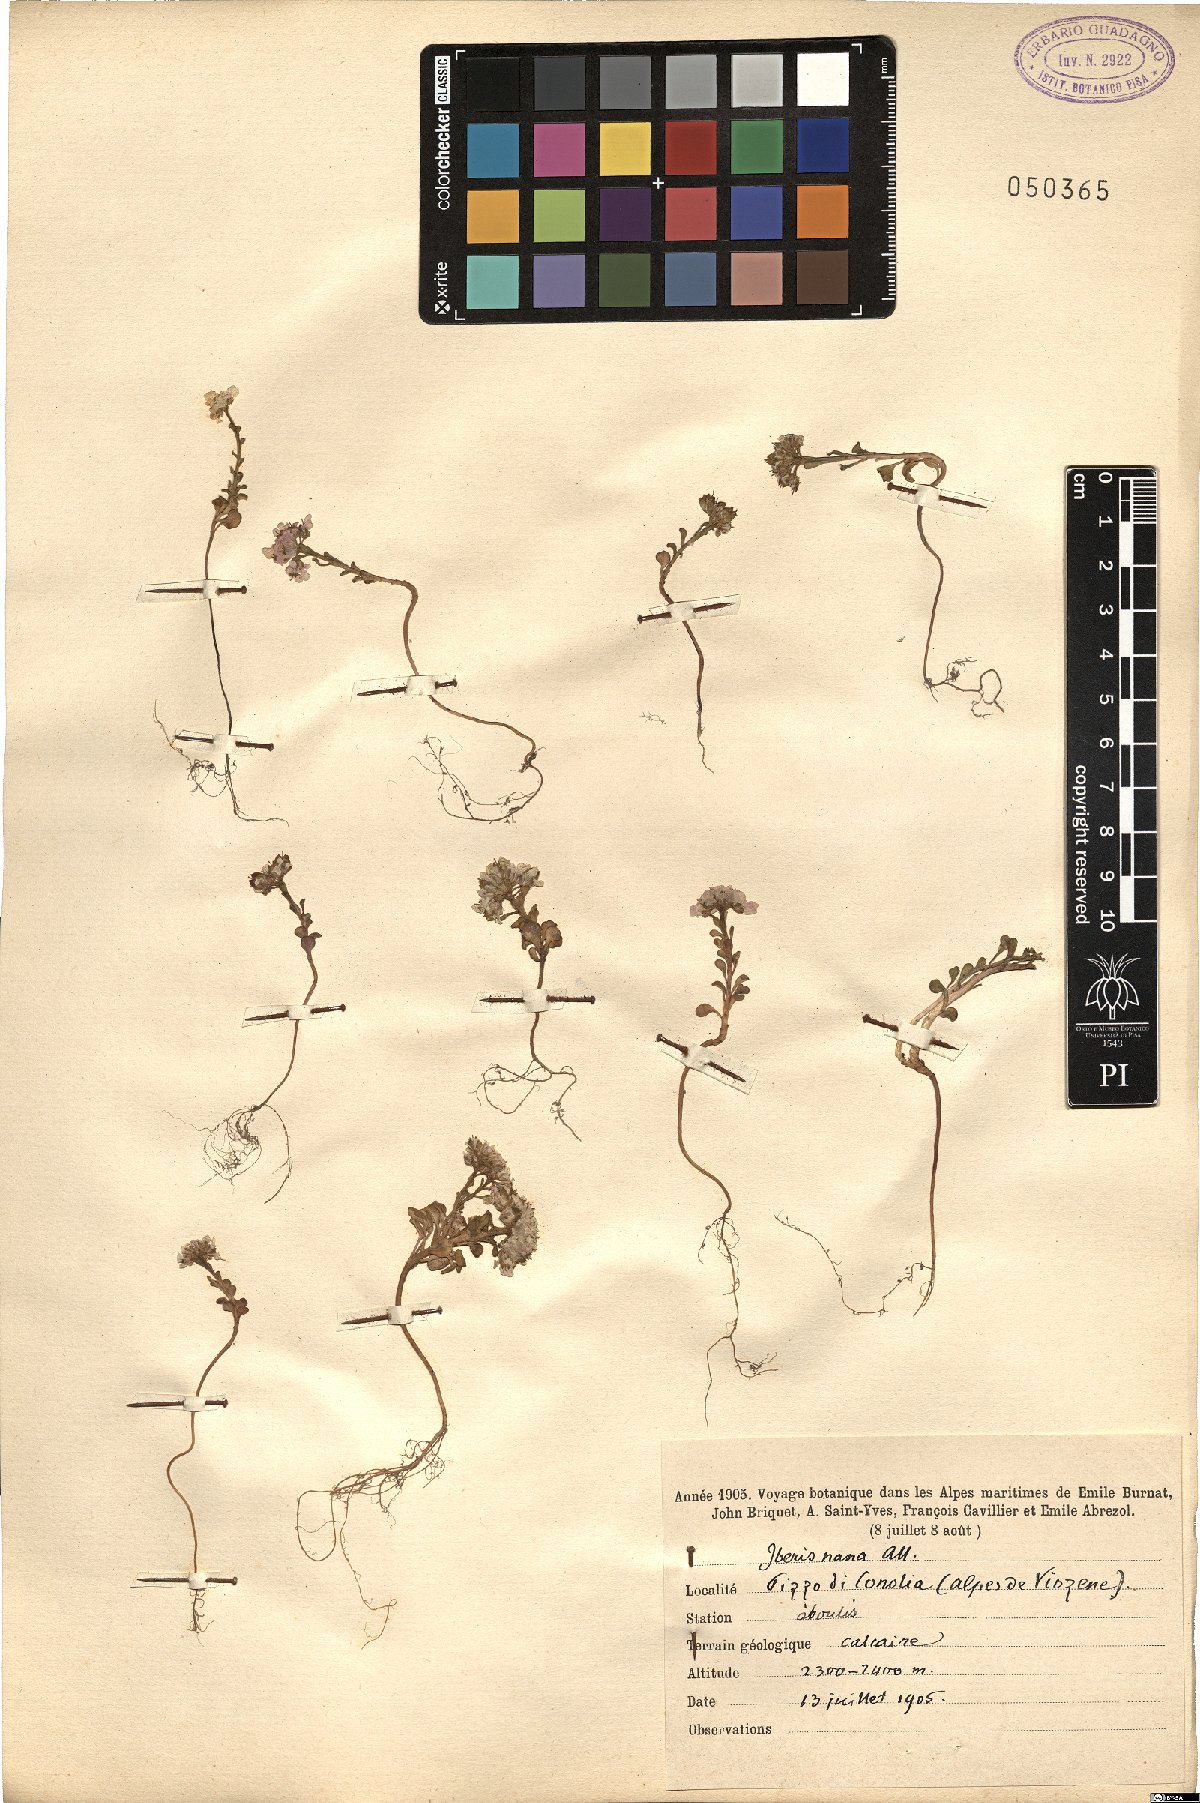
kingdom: Plantae
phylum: Tracheophyta
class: Magnoliopsida
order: Brassicales
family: Brassicaceae
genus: Iberis
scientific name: Iberis aurosica
